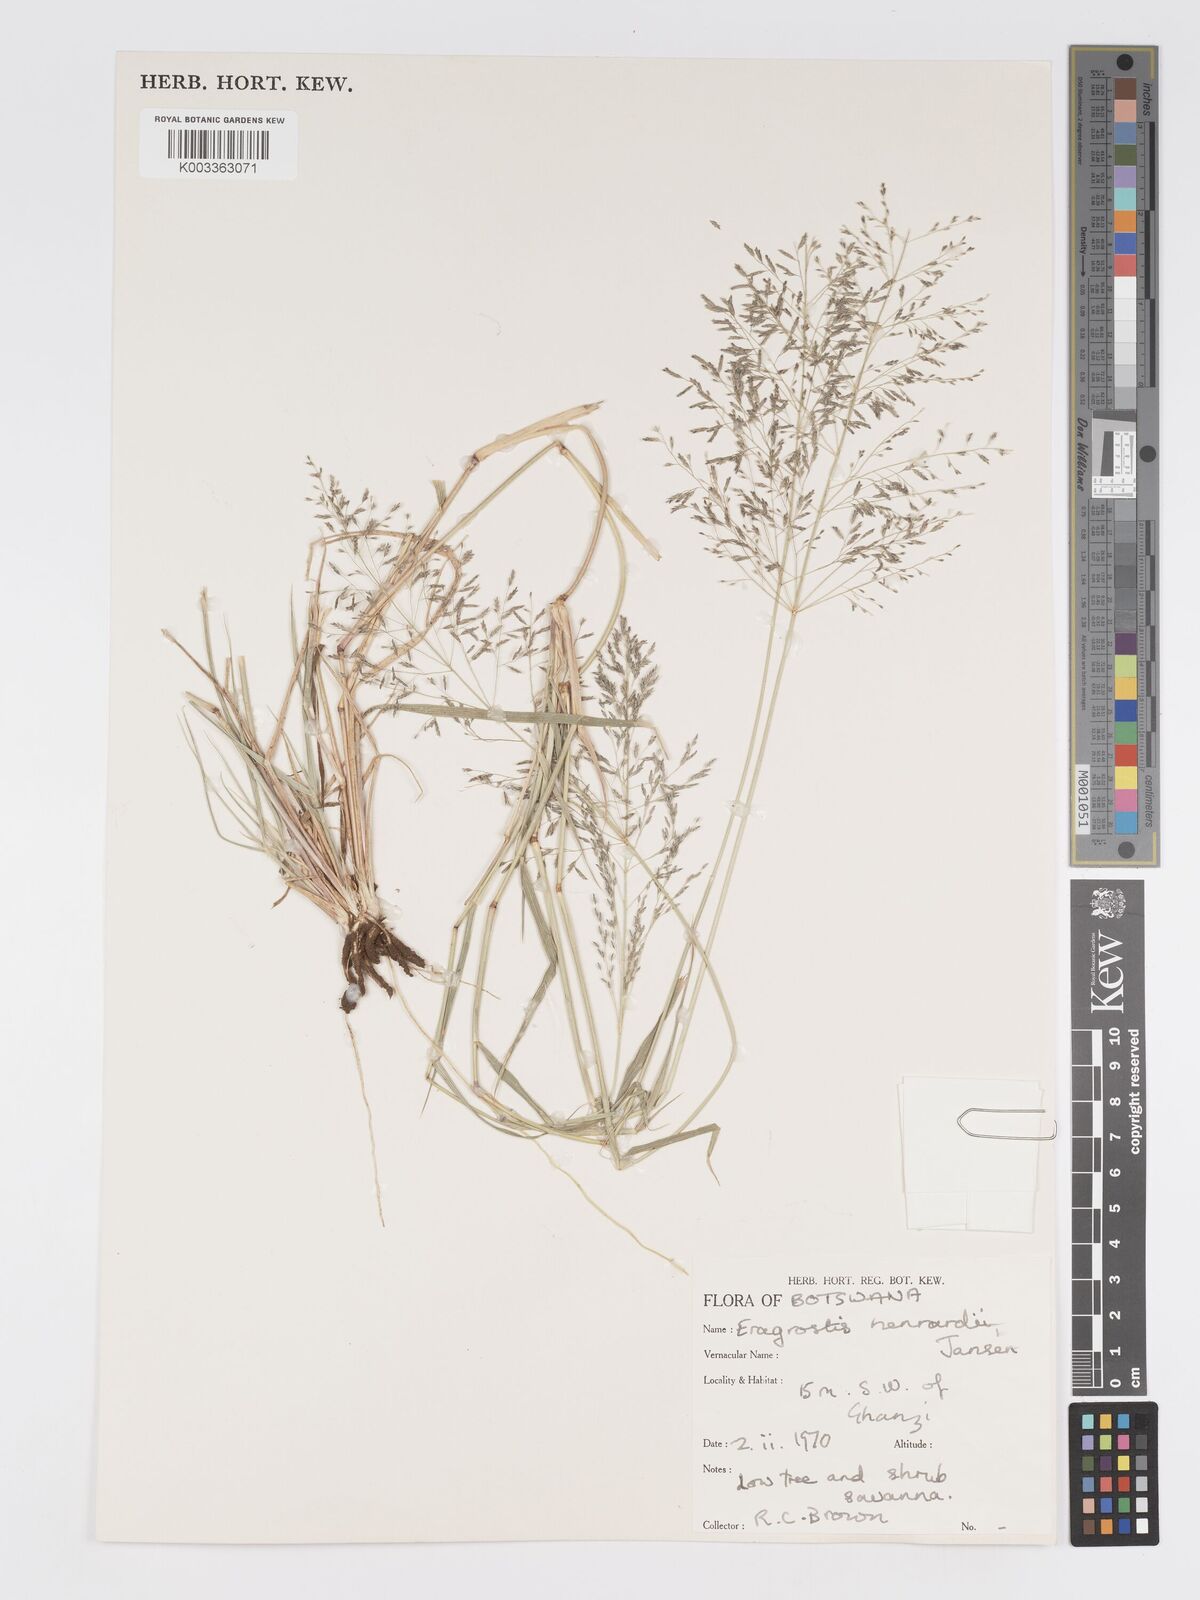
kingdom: Plantae
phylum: Tracheophyta
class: Liliopsida
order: Poales
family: Poaceae
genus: Eragrostis
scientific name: Eragrostis cylindriflora
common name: Cylinderflower lovegrass
